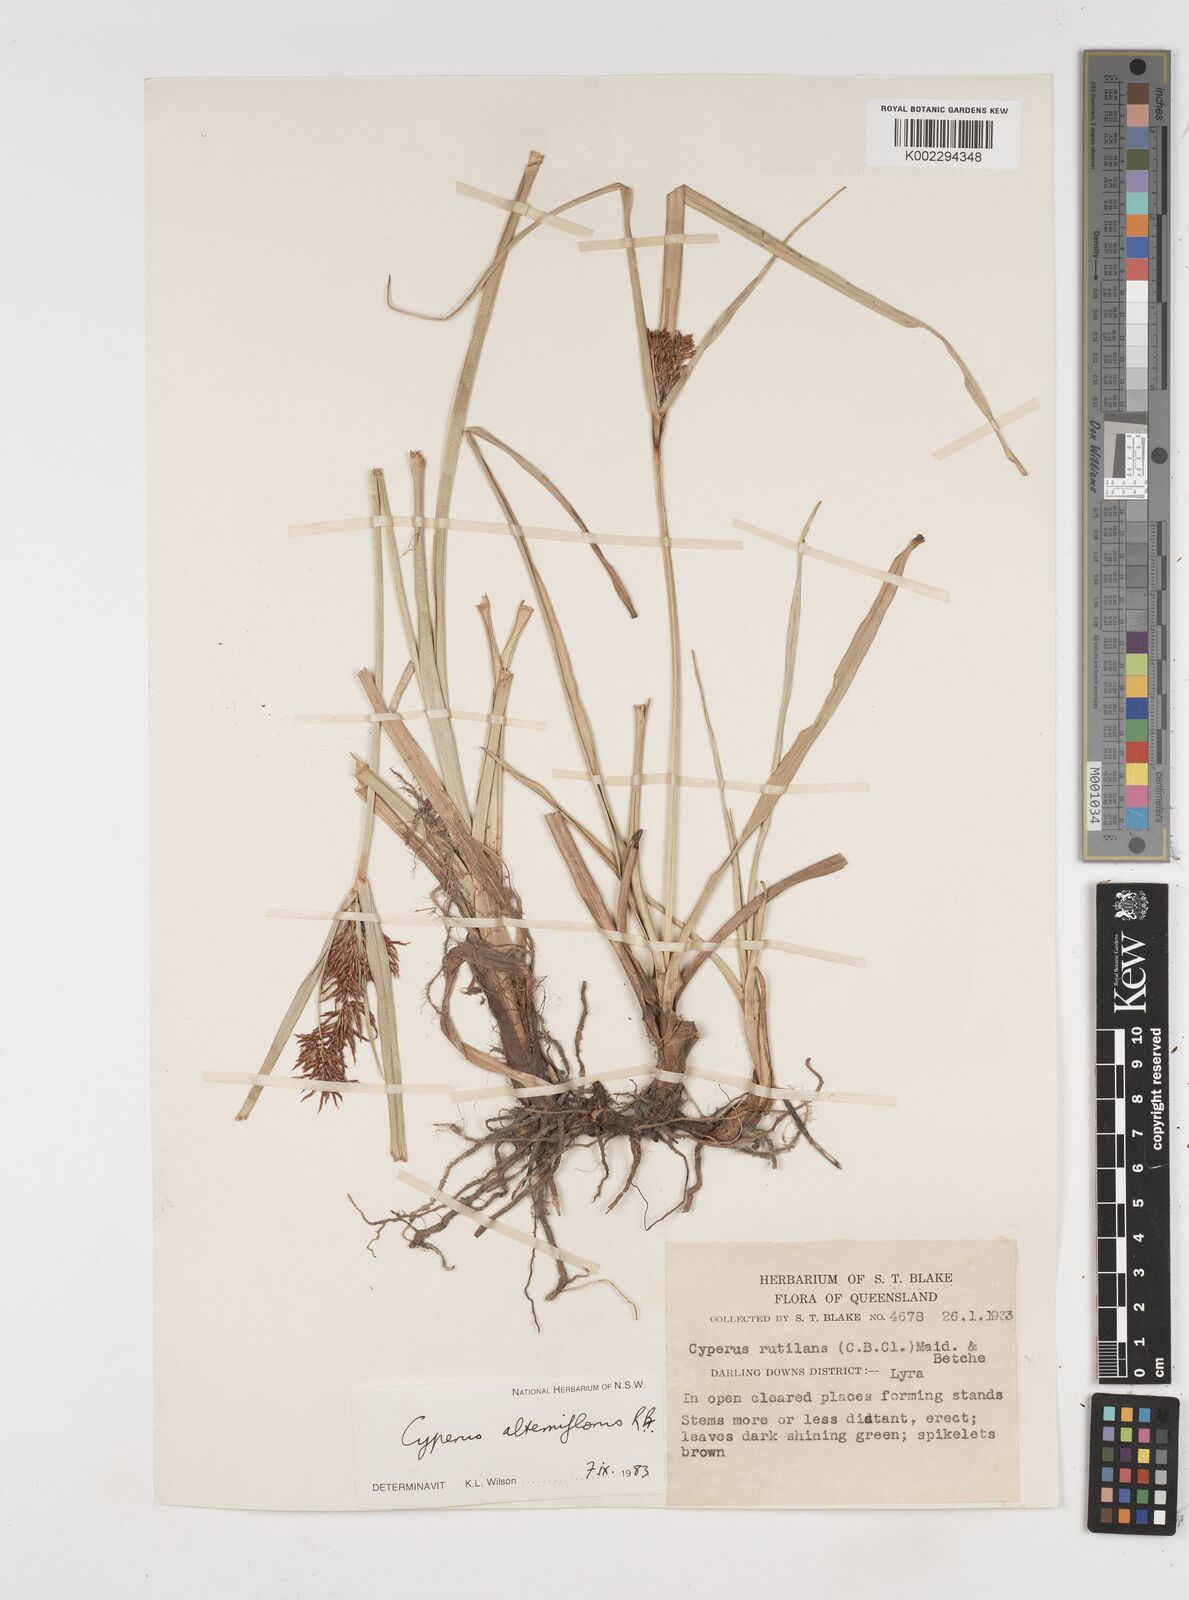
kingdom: Plantae
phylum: Tracheophyta
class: Liliopsida
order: Poales
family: Cyperaceae
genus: Cyperus
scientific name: Cyperus alterniflorus
